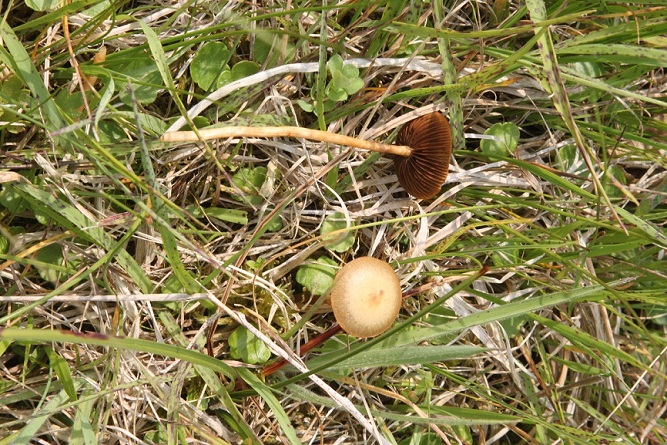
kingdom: Fungi
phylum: Basidiomycota
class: Agaricomycetes
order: Agaricales
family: Strophariaceae
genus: Agrocybe
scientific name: Agrocybe elatella
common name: mose-agerhat
